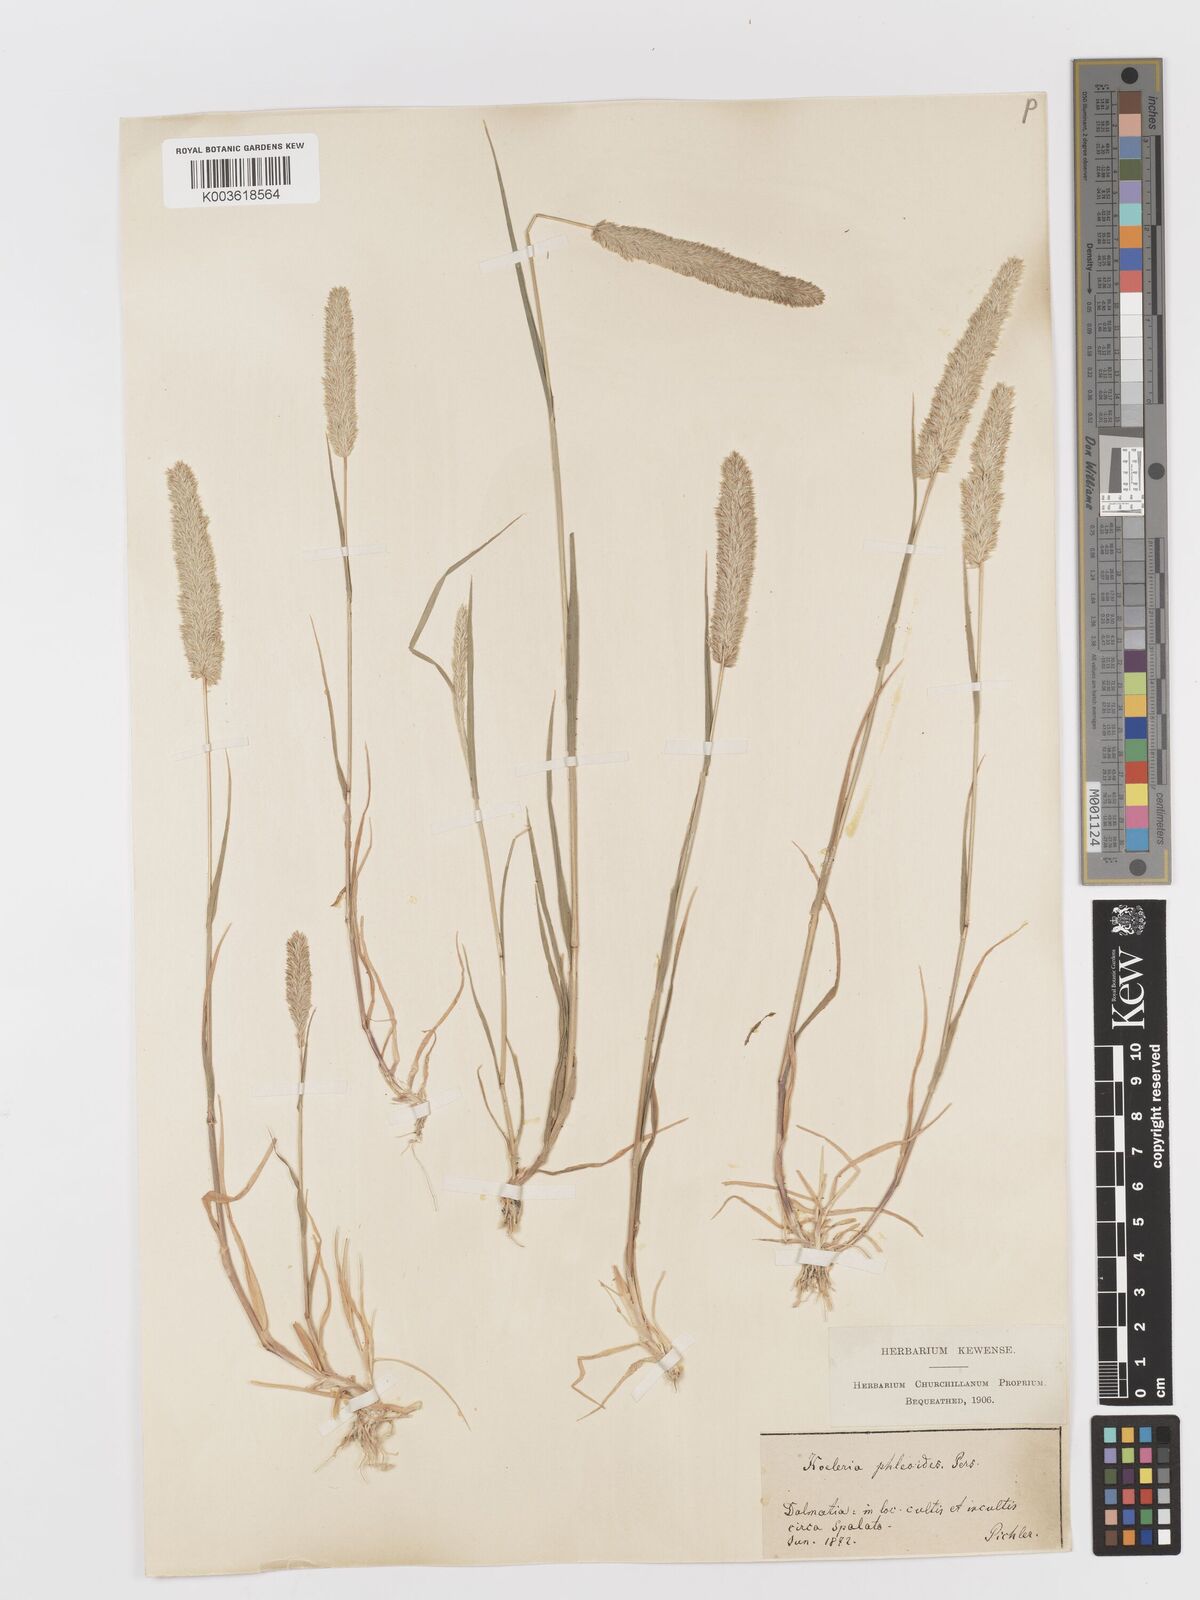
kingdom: Plantae
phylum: Tracheophyta
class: Liliopsida
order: Poales
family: Poaceae
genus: Rostraria
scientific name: Rostraria cristata
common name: Mediterranean hair-grass
